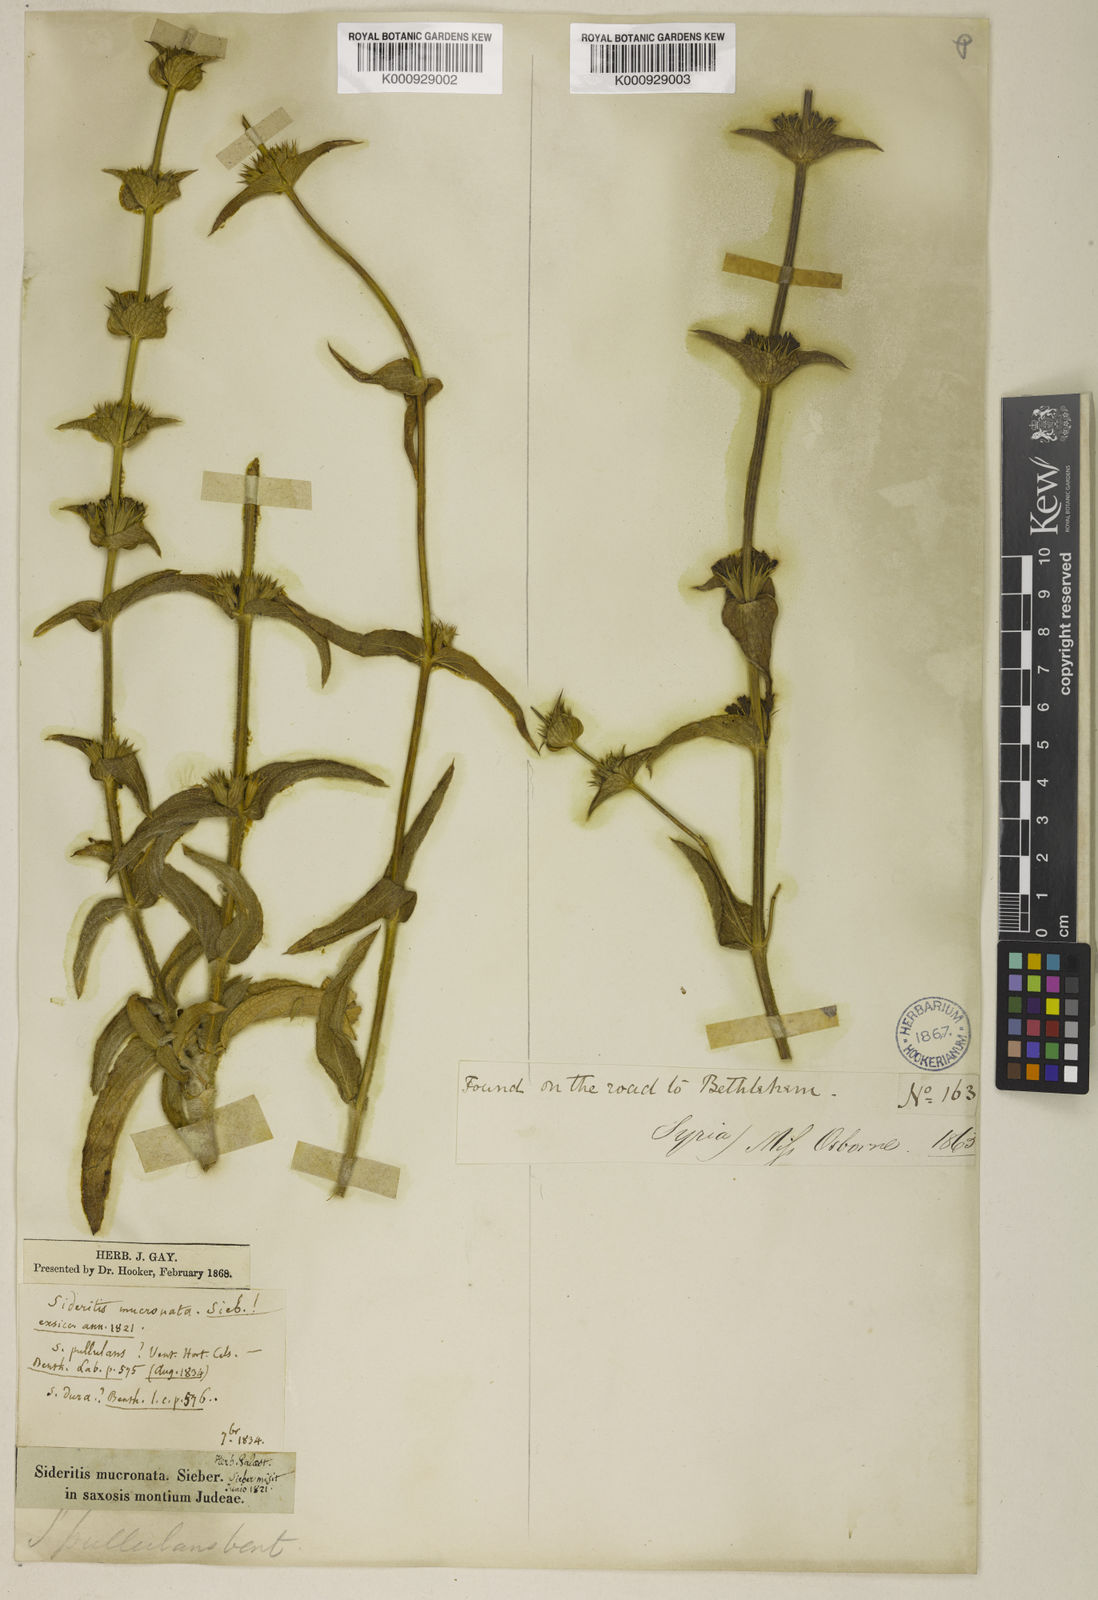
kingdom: Plantae
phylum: Tracheophyta
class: Magnoliopsida
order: Lamiales
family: Lamiaceae
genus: Sideritis
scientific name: Sideritis pullulans
